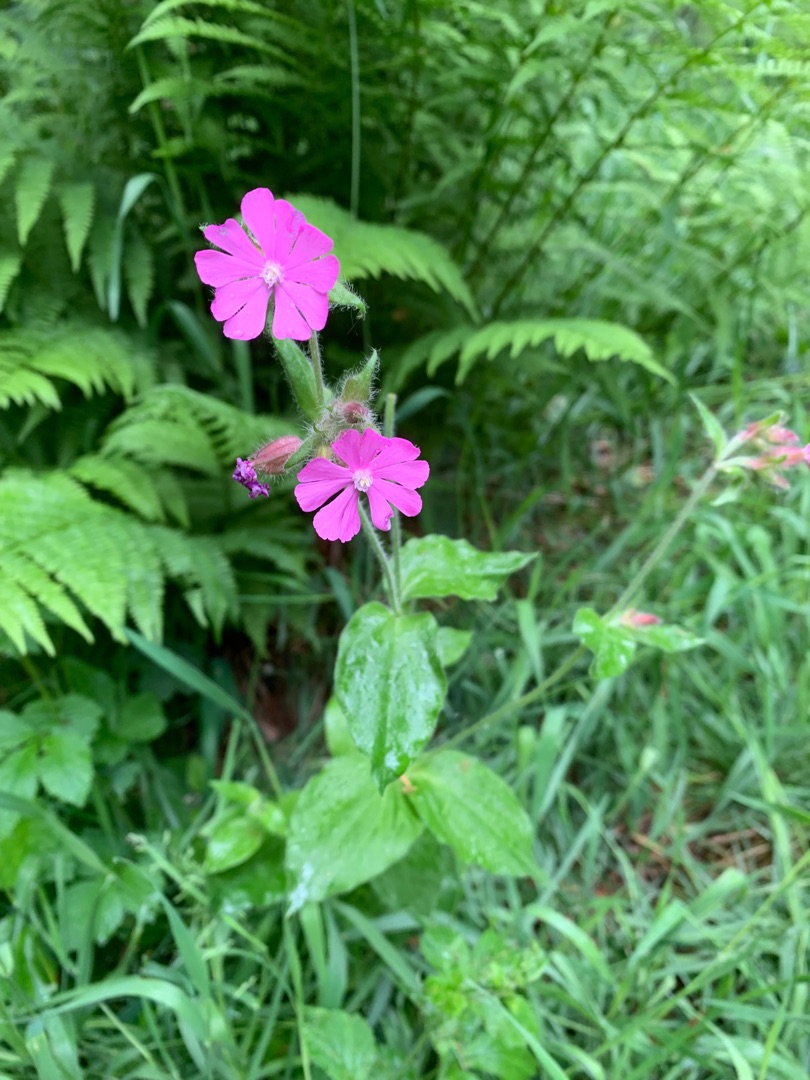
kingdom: Plantae
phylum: Tracheophyta
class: Magnoliopsida
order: Caryophyllales
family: Caryophyllaceae
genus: Silene
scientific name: Silene dioica
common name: Dagpragtstjerne
